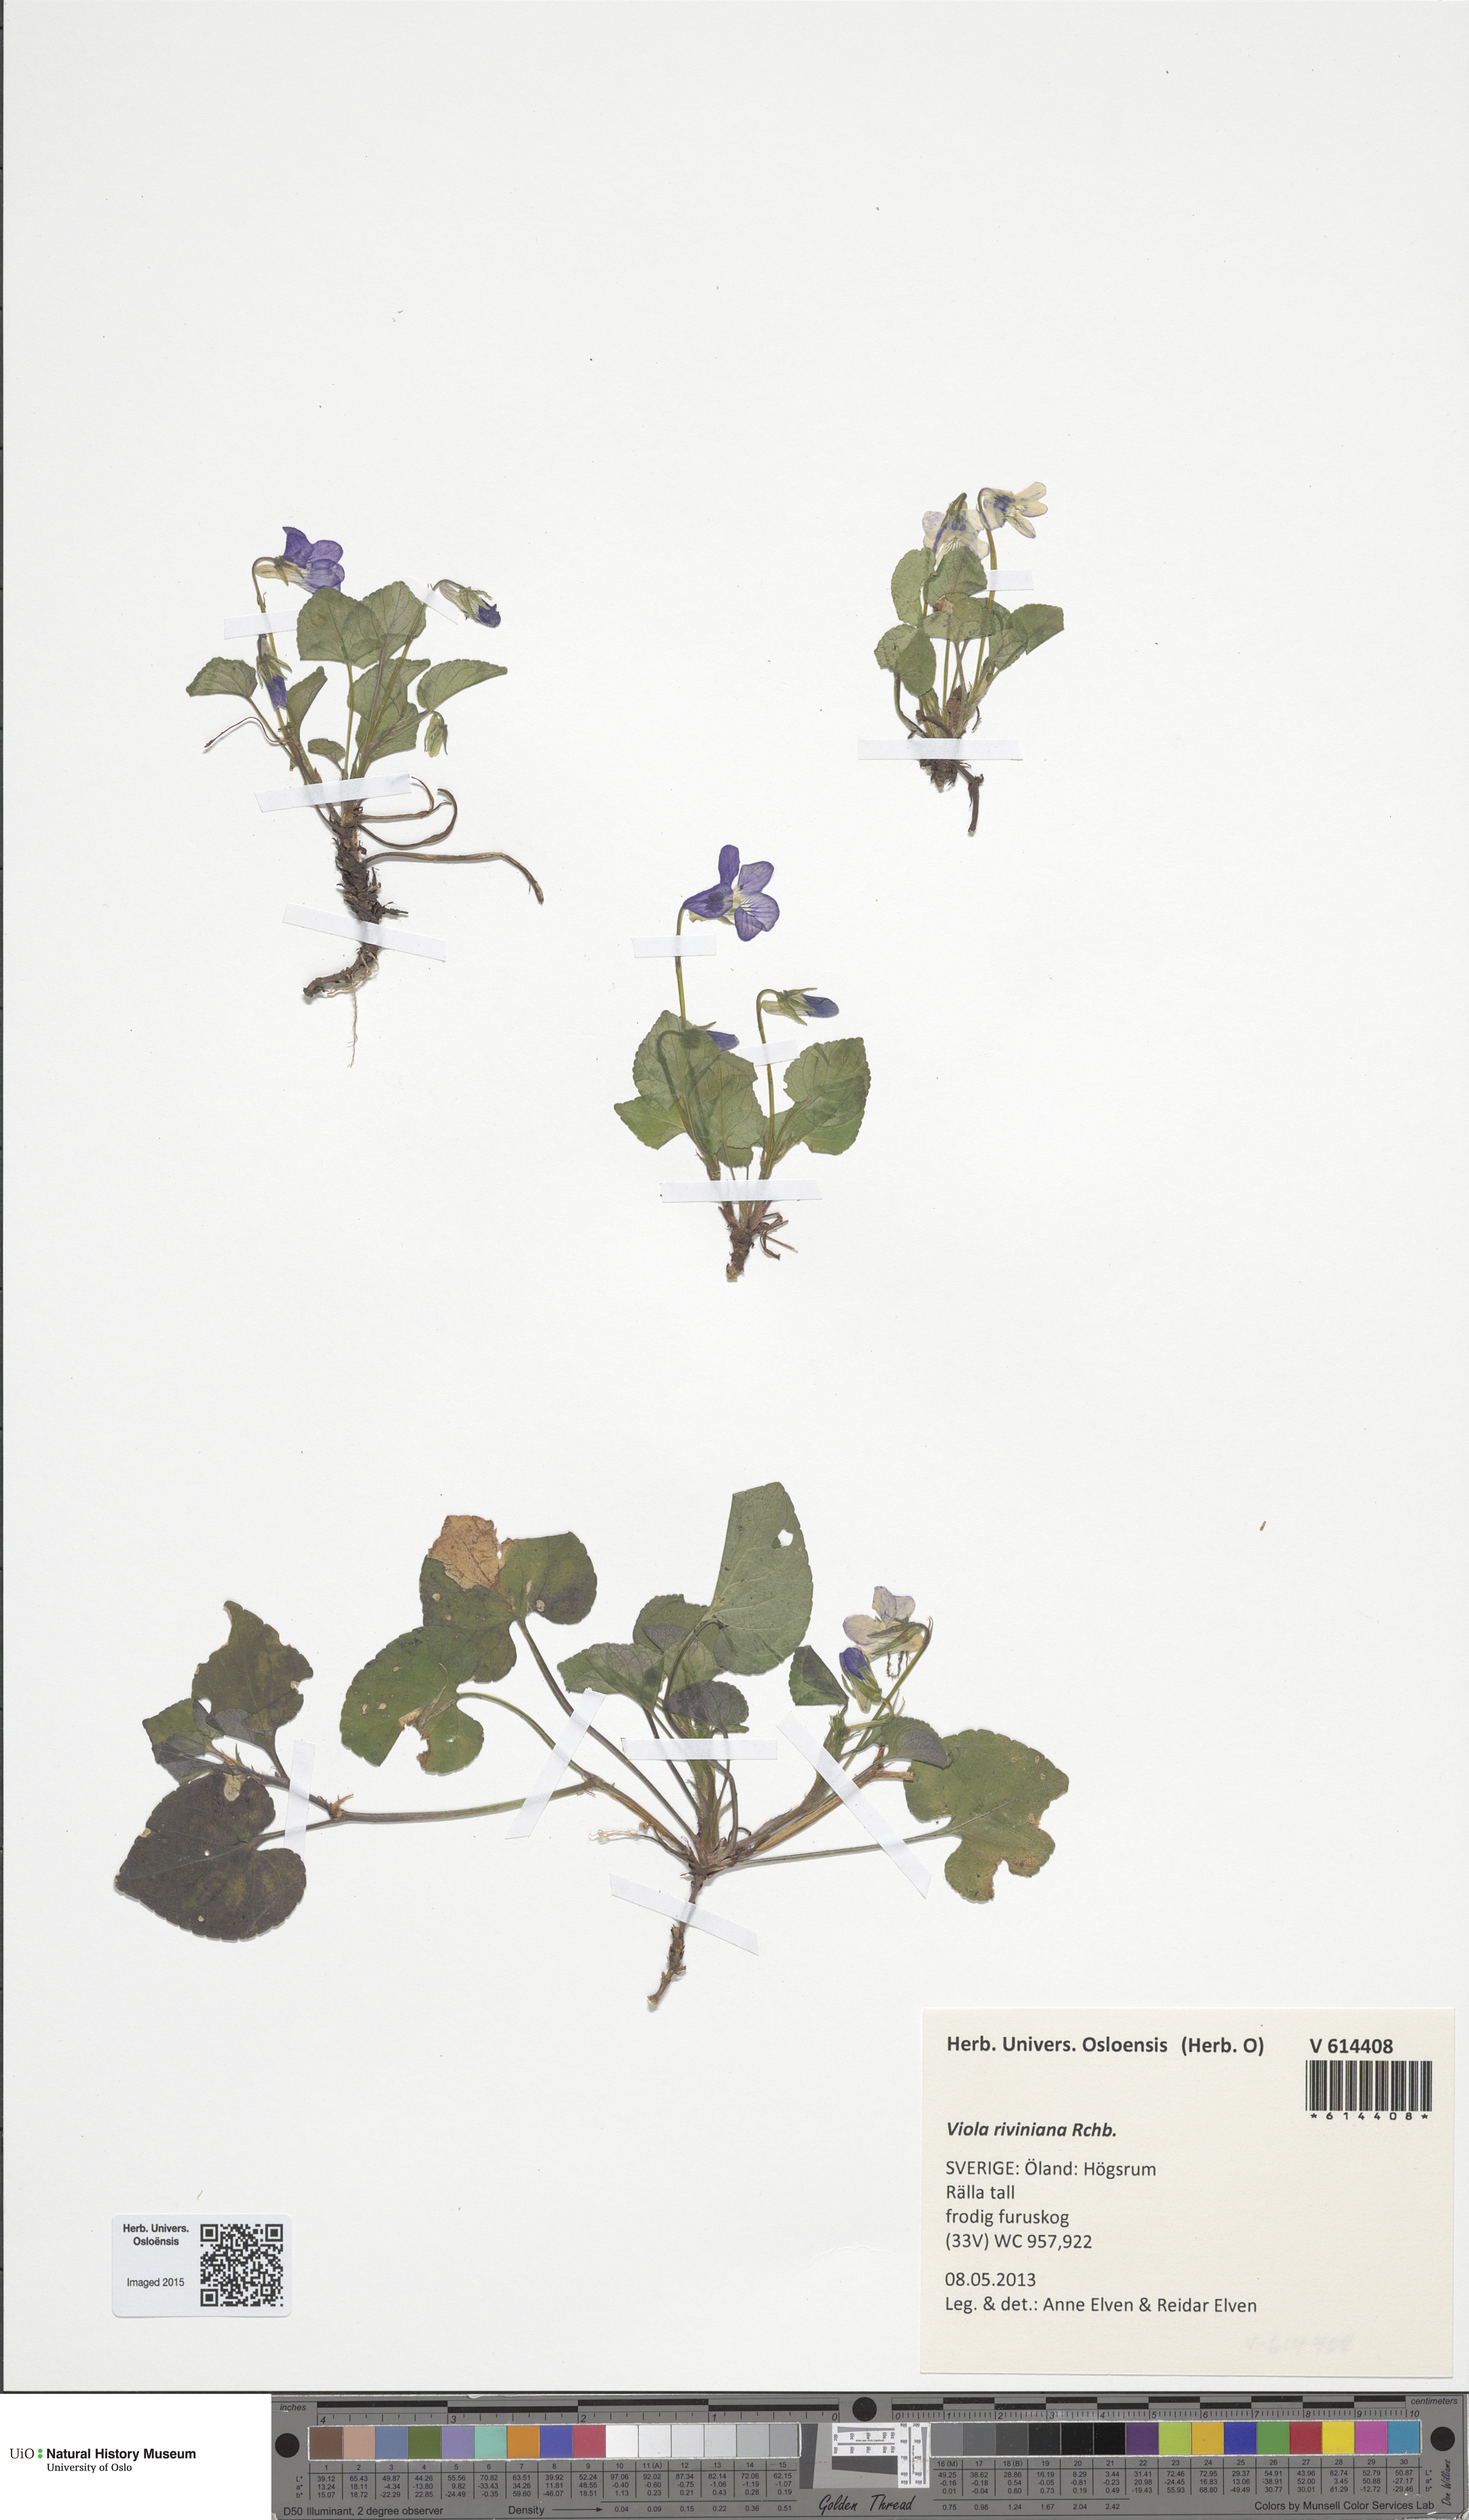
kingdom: Plantae
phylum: Tracheophyta
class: Magnoliopsida
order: Malpighiales
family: Violaceae
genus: Viola
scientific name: Viola riviniana
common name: Common dog-violet
